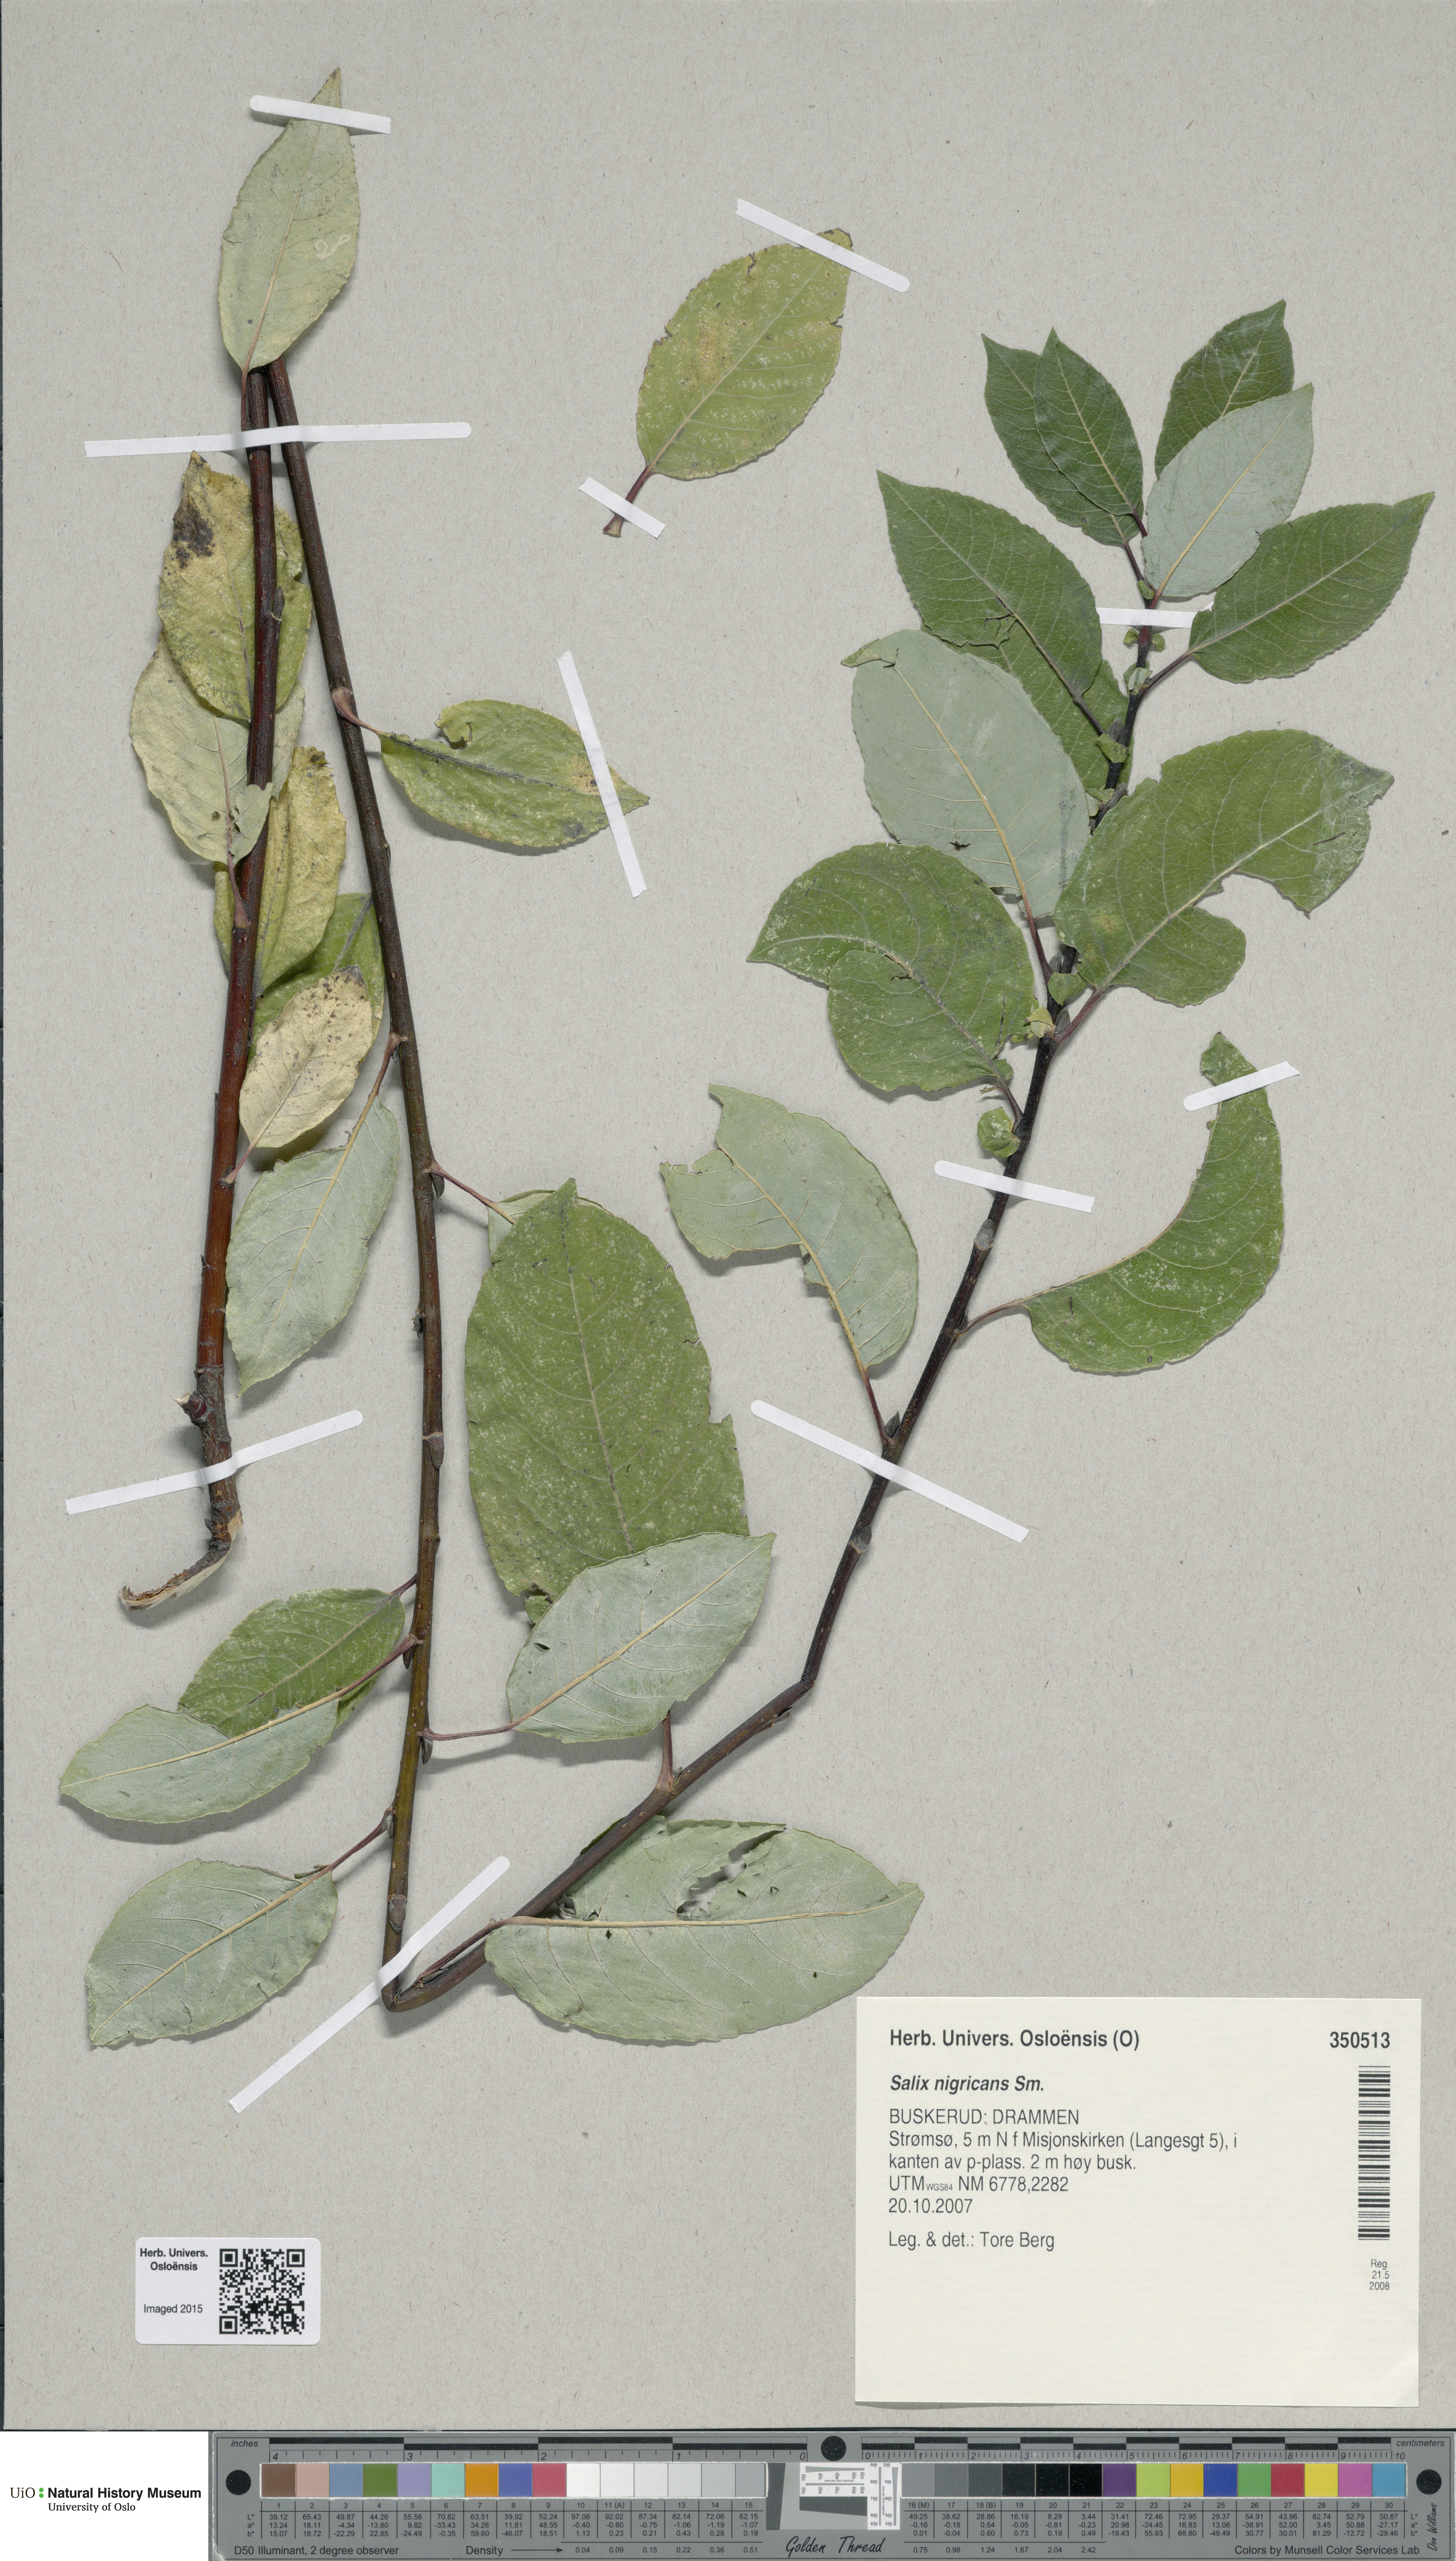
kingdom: Plantae
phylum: Tracheophyta
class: Magnoliopsida
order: Malpighiales
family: Salicaceae
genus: Salix
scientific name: Salix myrsinifolia
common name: Dark-leaved willow
